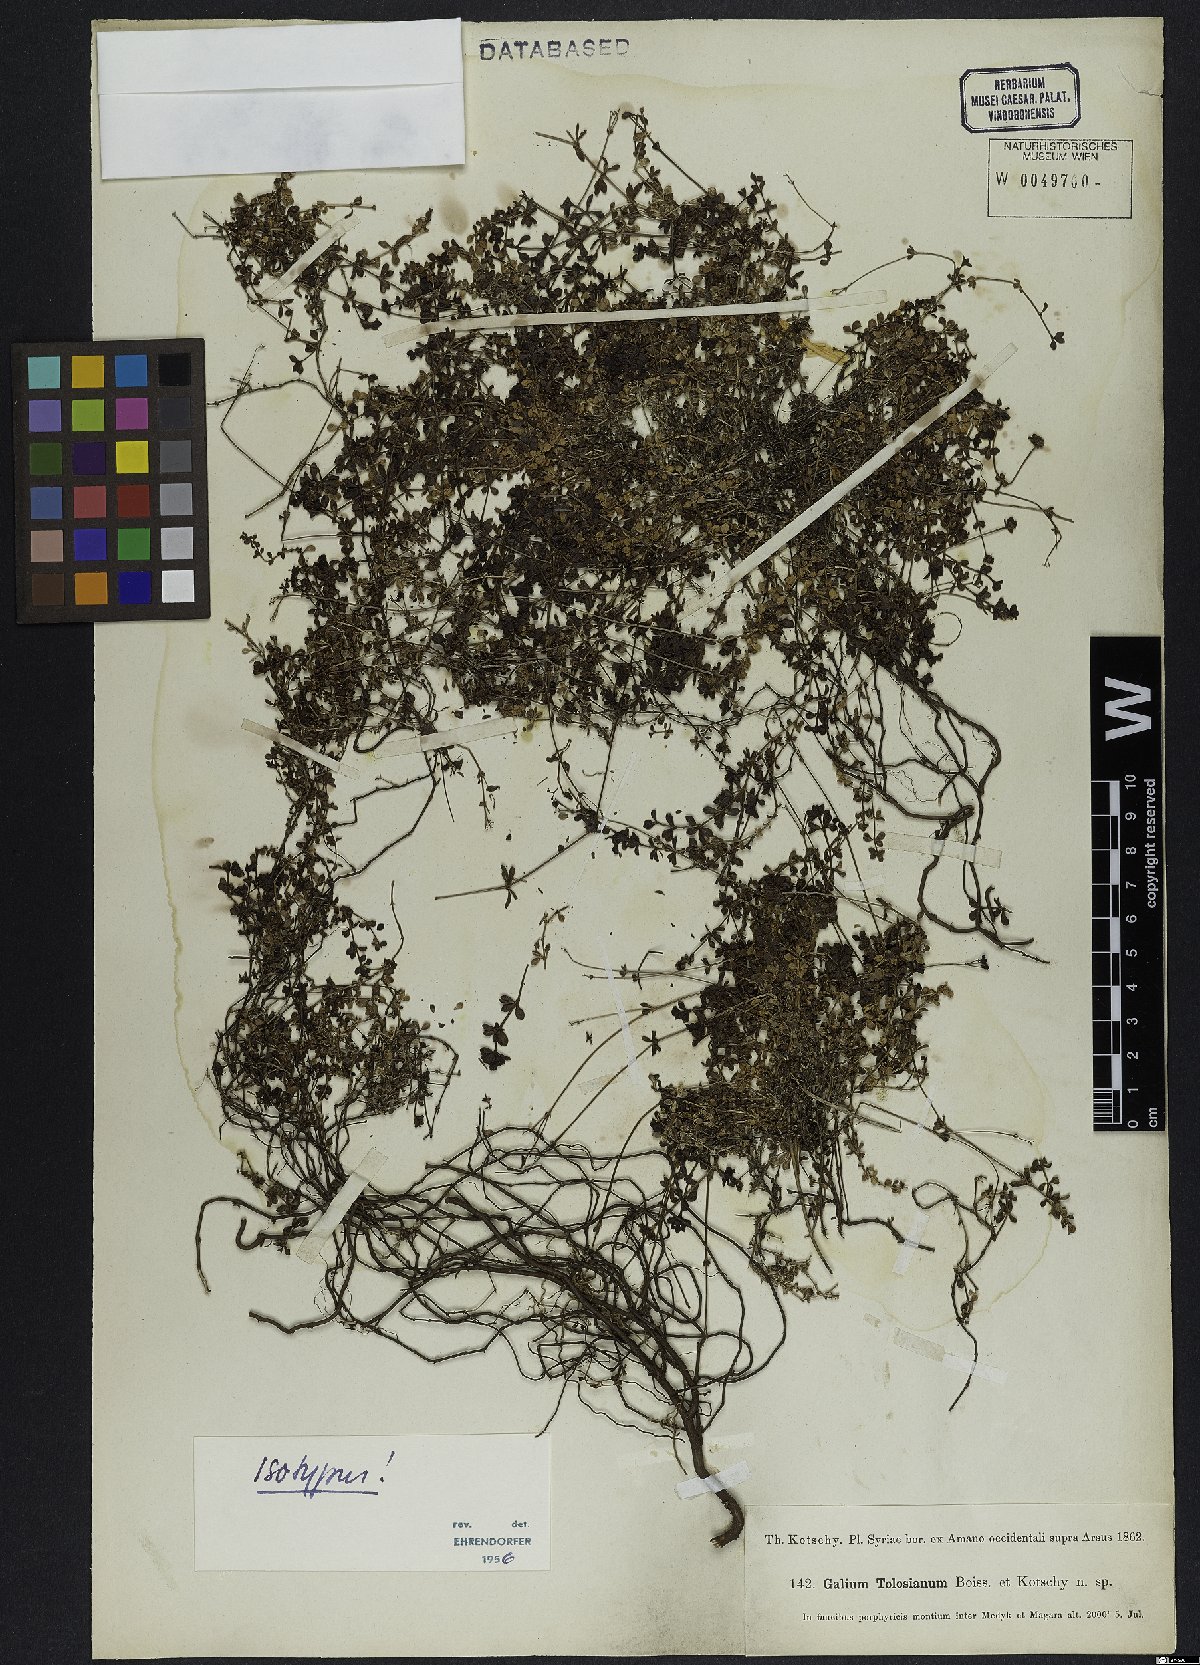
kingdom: Plantae
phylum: Tracheophyta
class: Magnoliopsida
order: Gentianales
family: Rubiaceae
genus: Galium
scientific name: Galium tolosianum
